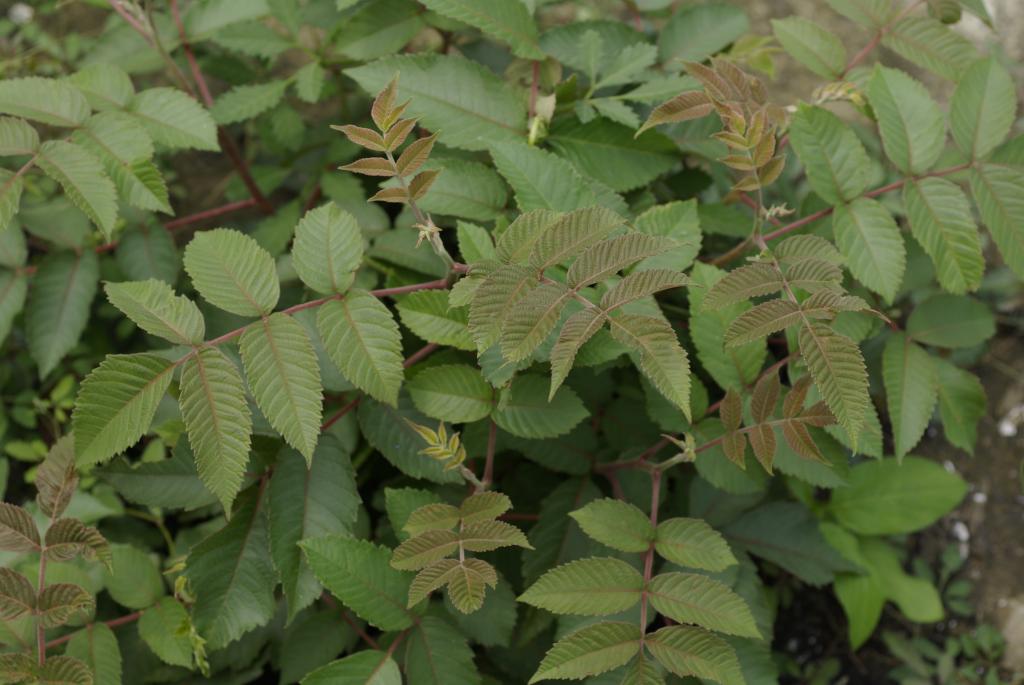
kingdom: Plantae
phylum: Tracheophyta
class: Magnoliopsida
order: Sapindales
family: Anacardiaceae
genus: Rhus
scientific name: Rhus chinensis
